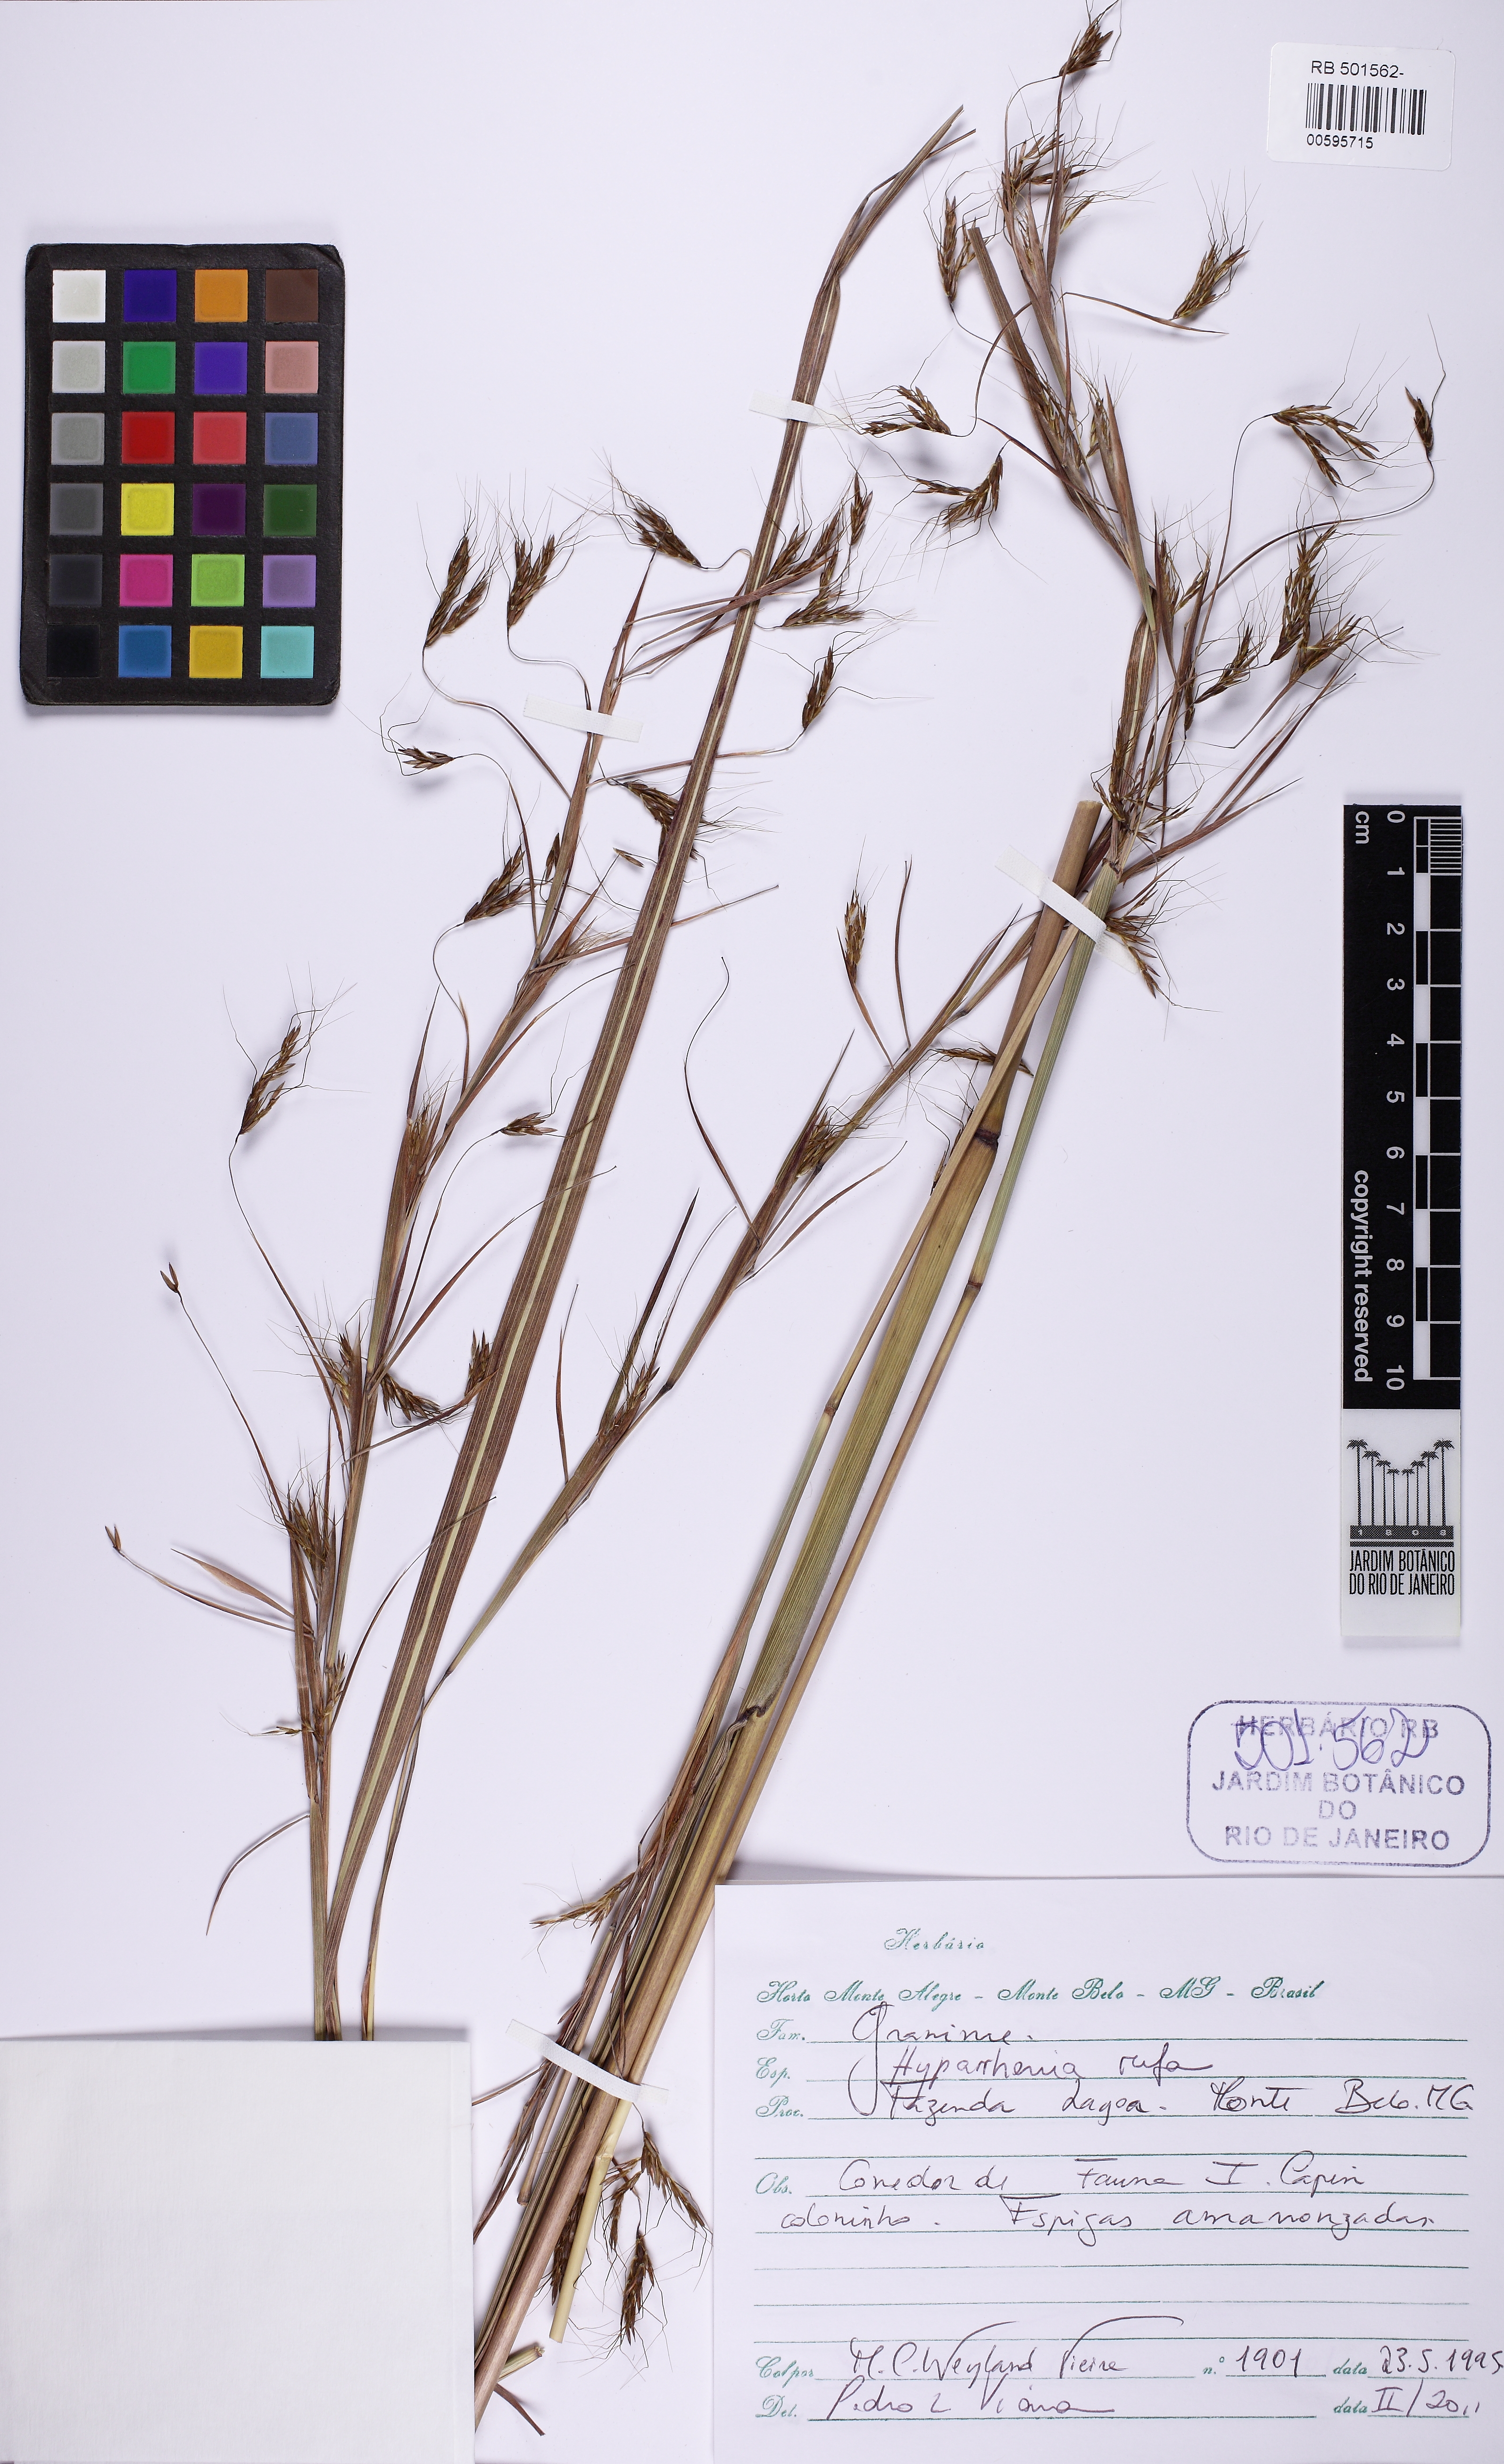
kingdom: Plantae
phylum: Tracheophyta
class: Liliopsida
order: Poales
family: Poaceae
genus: Hyparrhenia
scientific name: Hyparrhenia rufa
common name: Jaraguagrass
